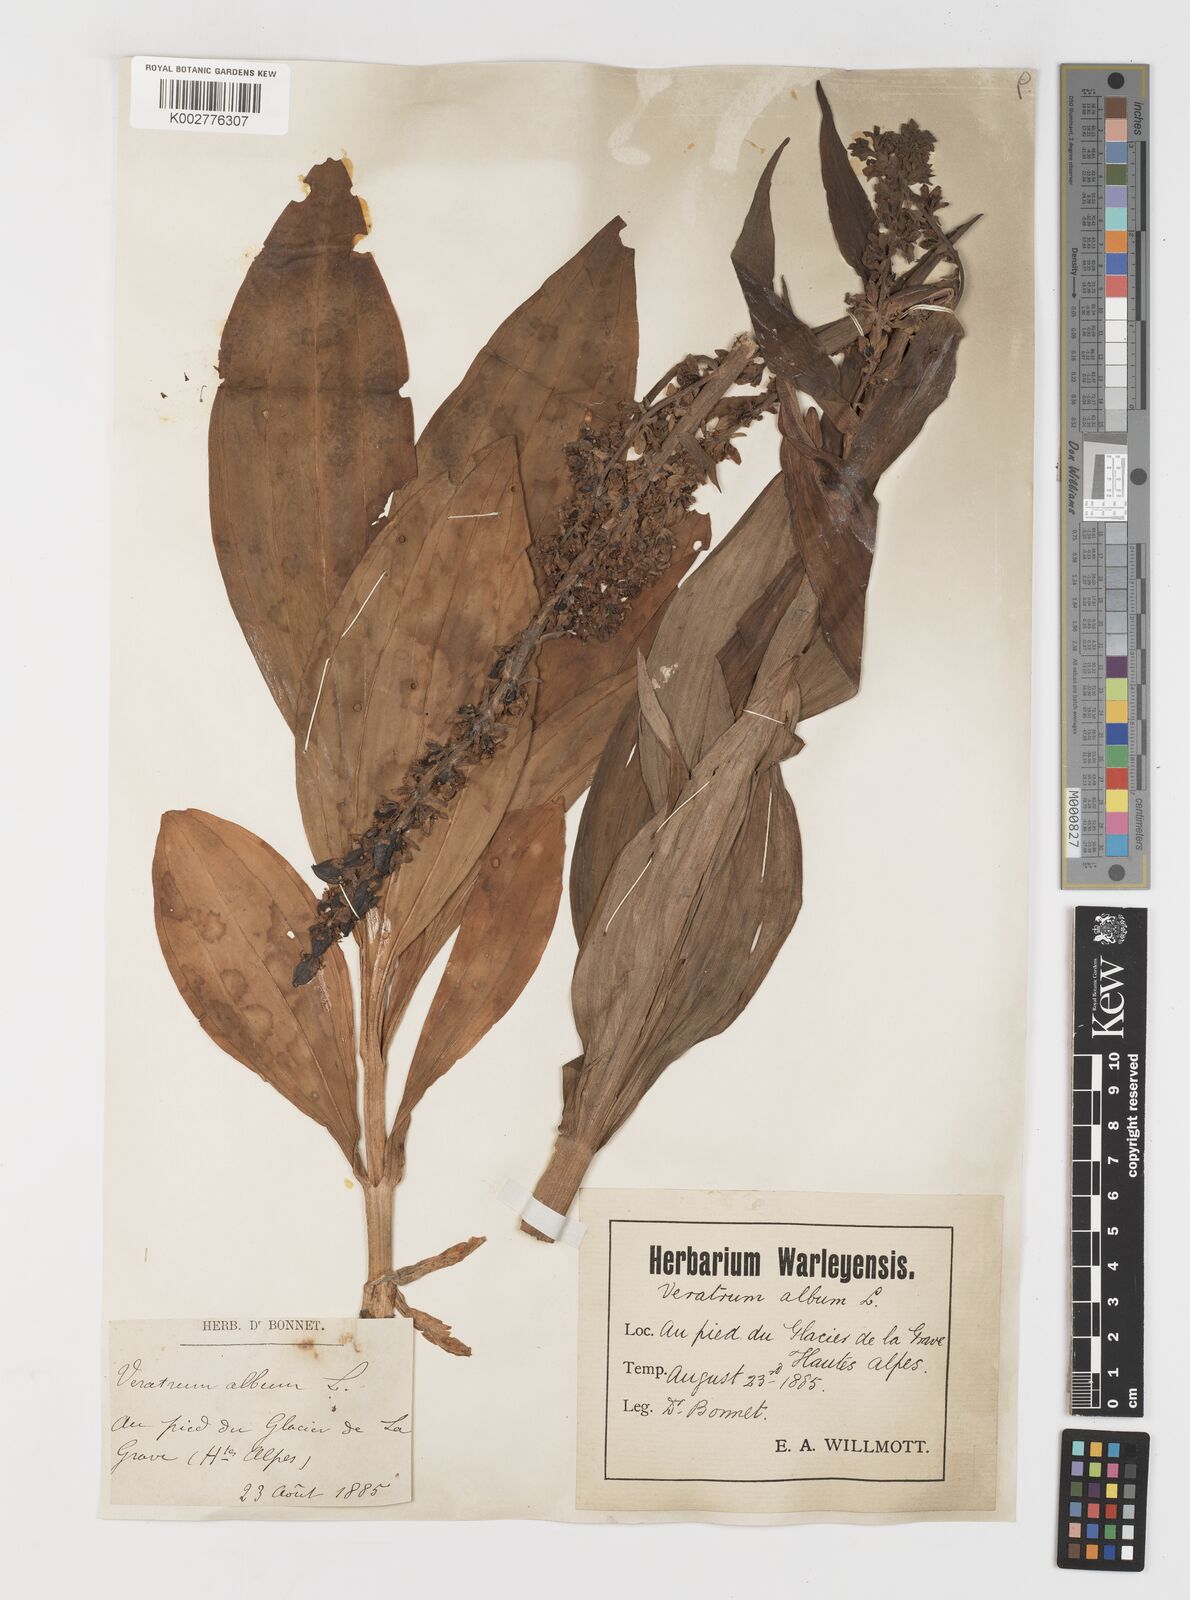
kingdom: Plantae
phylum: Tracheophyta
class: Liliopsida
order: Liliales
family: Melanthiaceae
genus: Veratrum
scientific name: Veratrum album
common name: White veratrum
